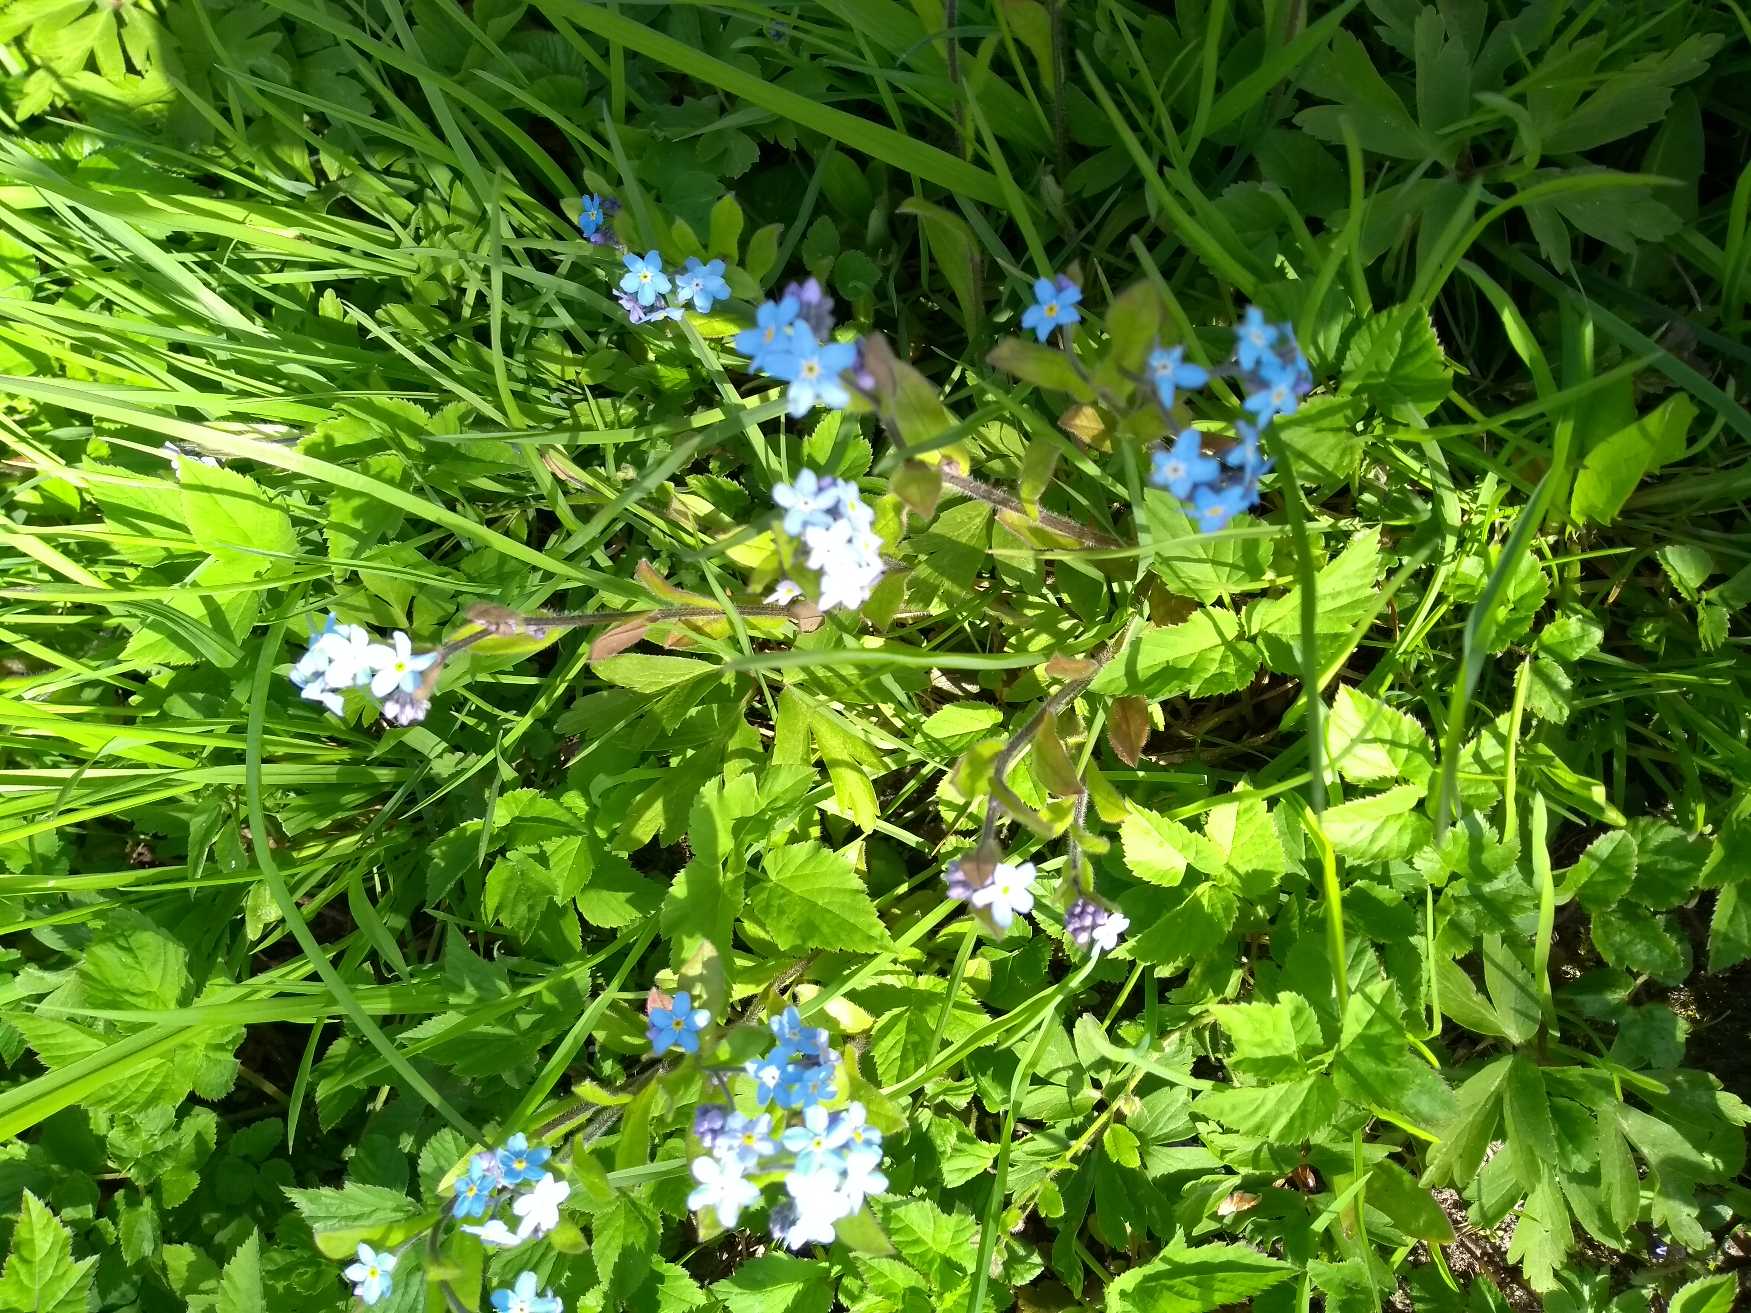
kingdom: Plantae
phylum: Tracheophyta
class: Magnoliopsida
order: Boraginales
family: Boraginaceae
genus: Myosotis
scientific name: Myosotis sylvatica
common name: Skov-forglemmigej
